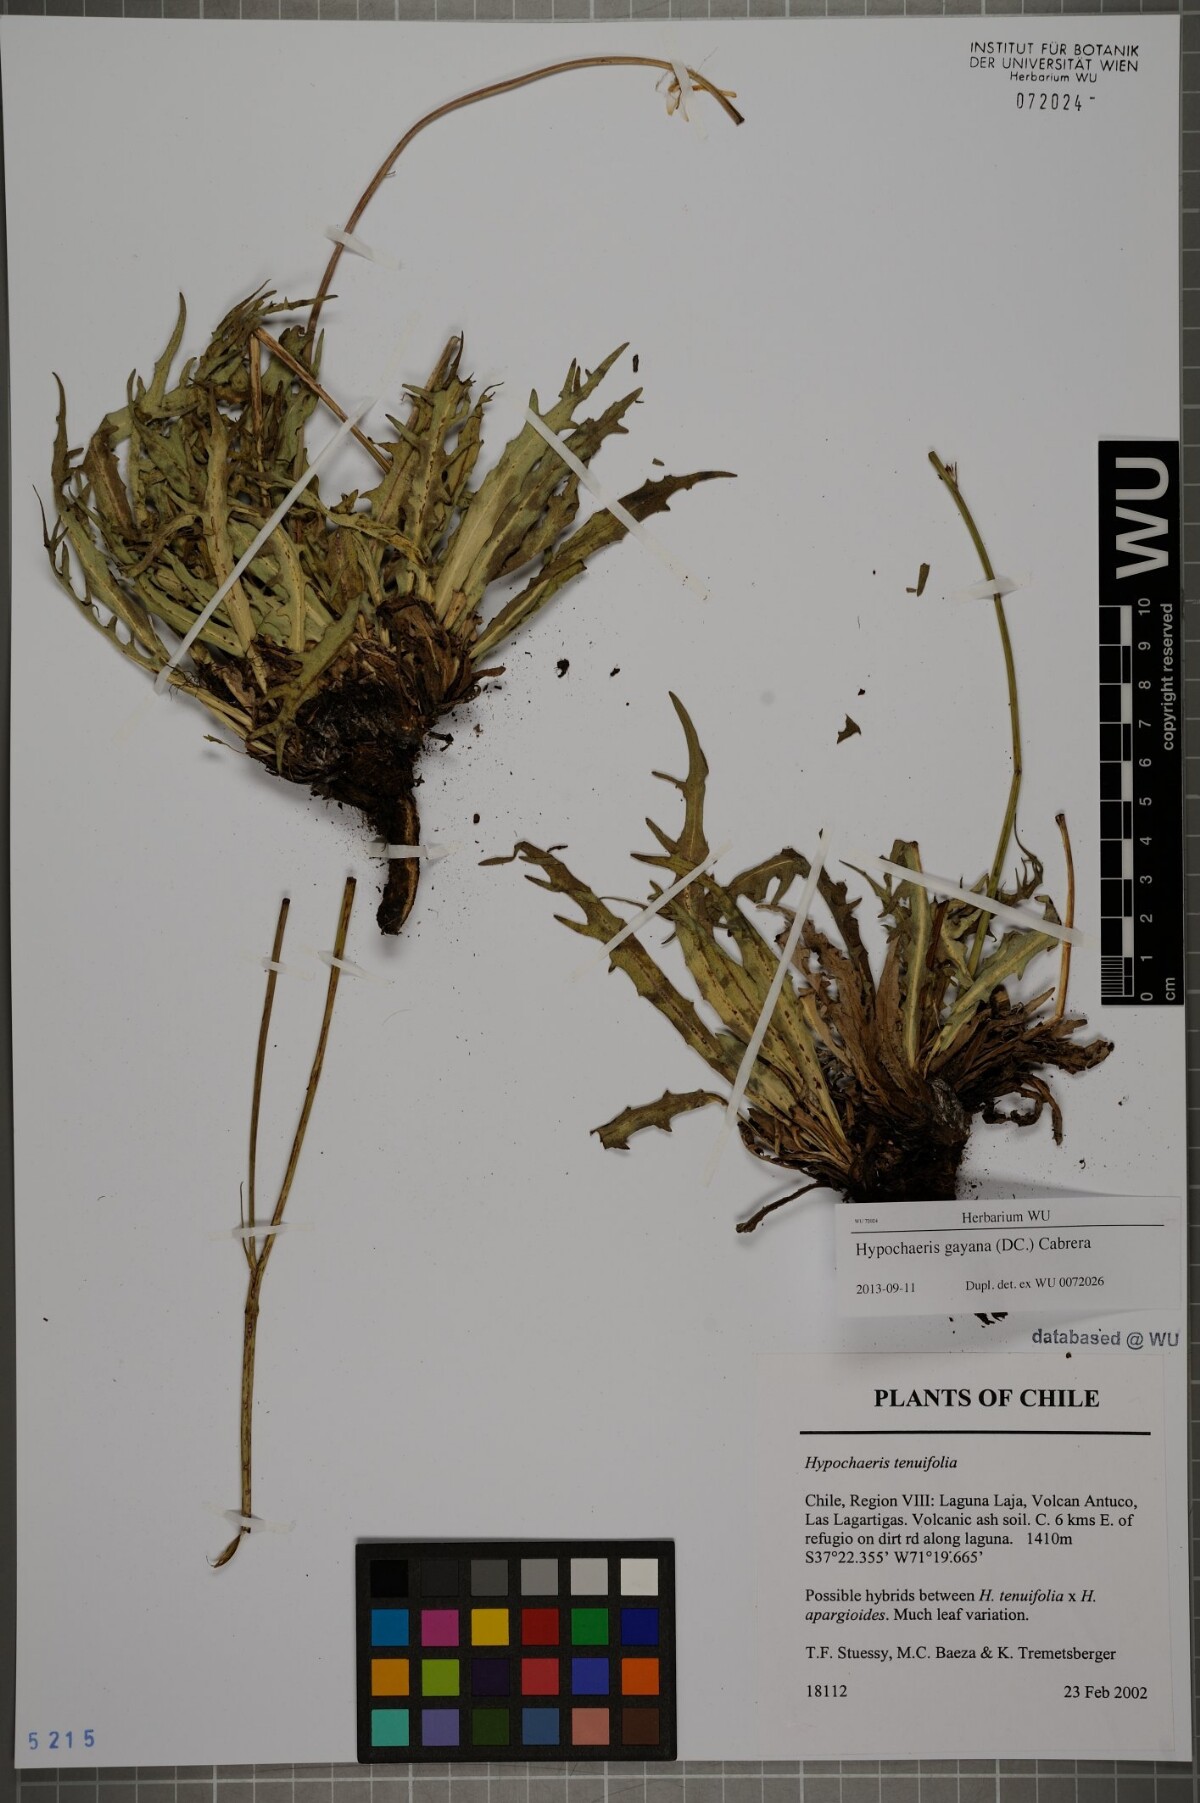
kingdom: Plantae
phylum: Tracheophyta
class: Magnoliopsida
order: Asterales
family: Asteraceae
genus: Hypochaeris
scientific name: Hypochaeris melanolepis
